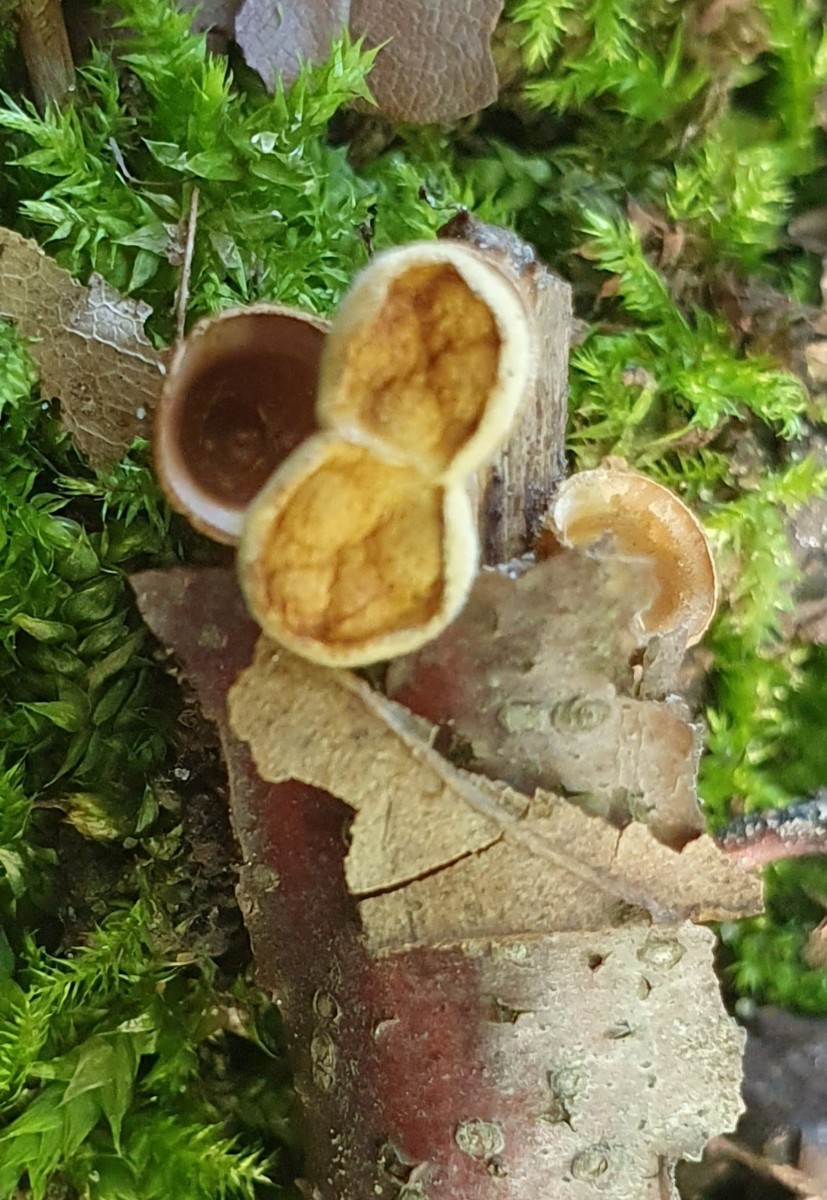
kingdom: Fungi
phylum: Basidiomycota
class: Agaricomycetes
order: Agaricales
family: Nidulariaceae
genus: Crucibulum
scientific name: Crucibulum crucibuliforme
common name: krukkesvamp
